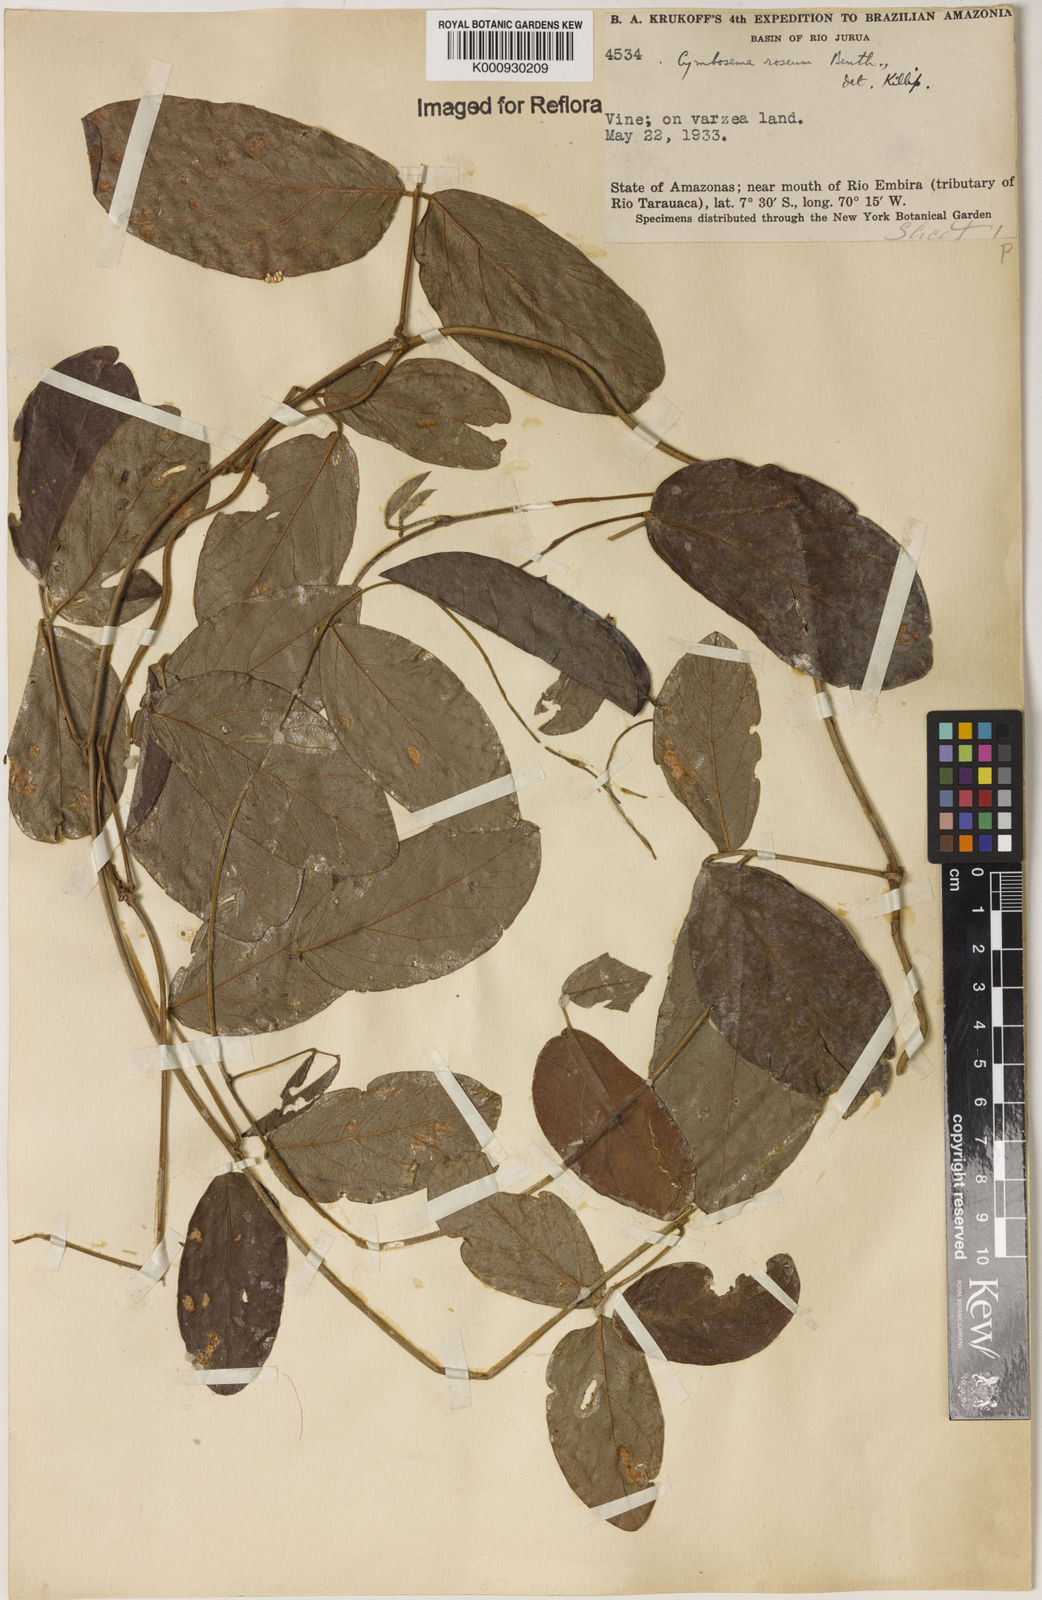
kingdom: Plantae
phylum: Tracheophyta
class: Magnoliopsida
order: Fabales
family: Fabaceae
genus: Cymbosema
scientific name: Cymbosema roseum
